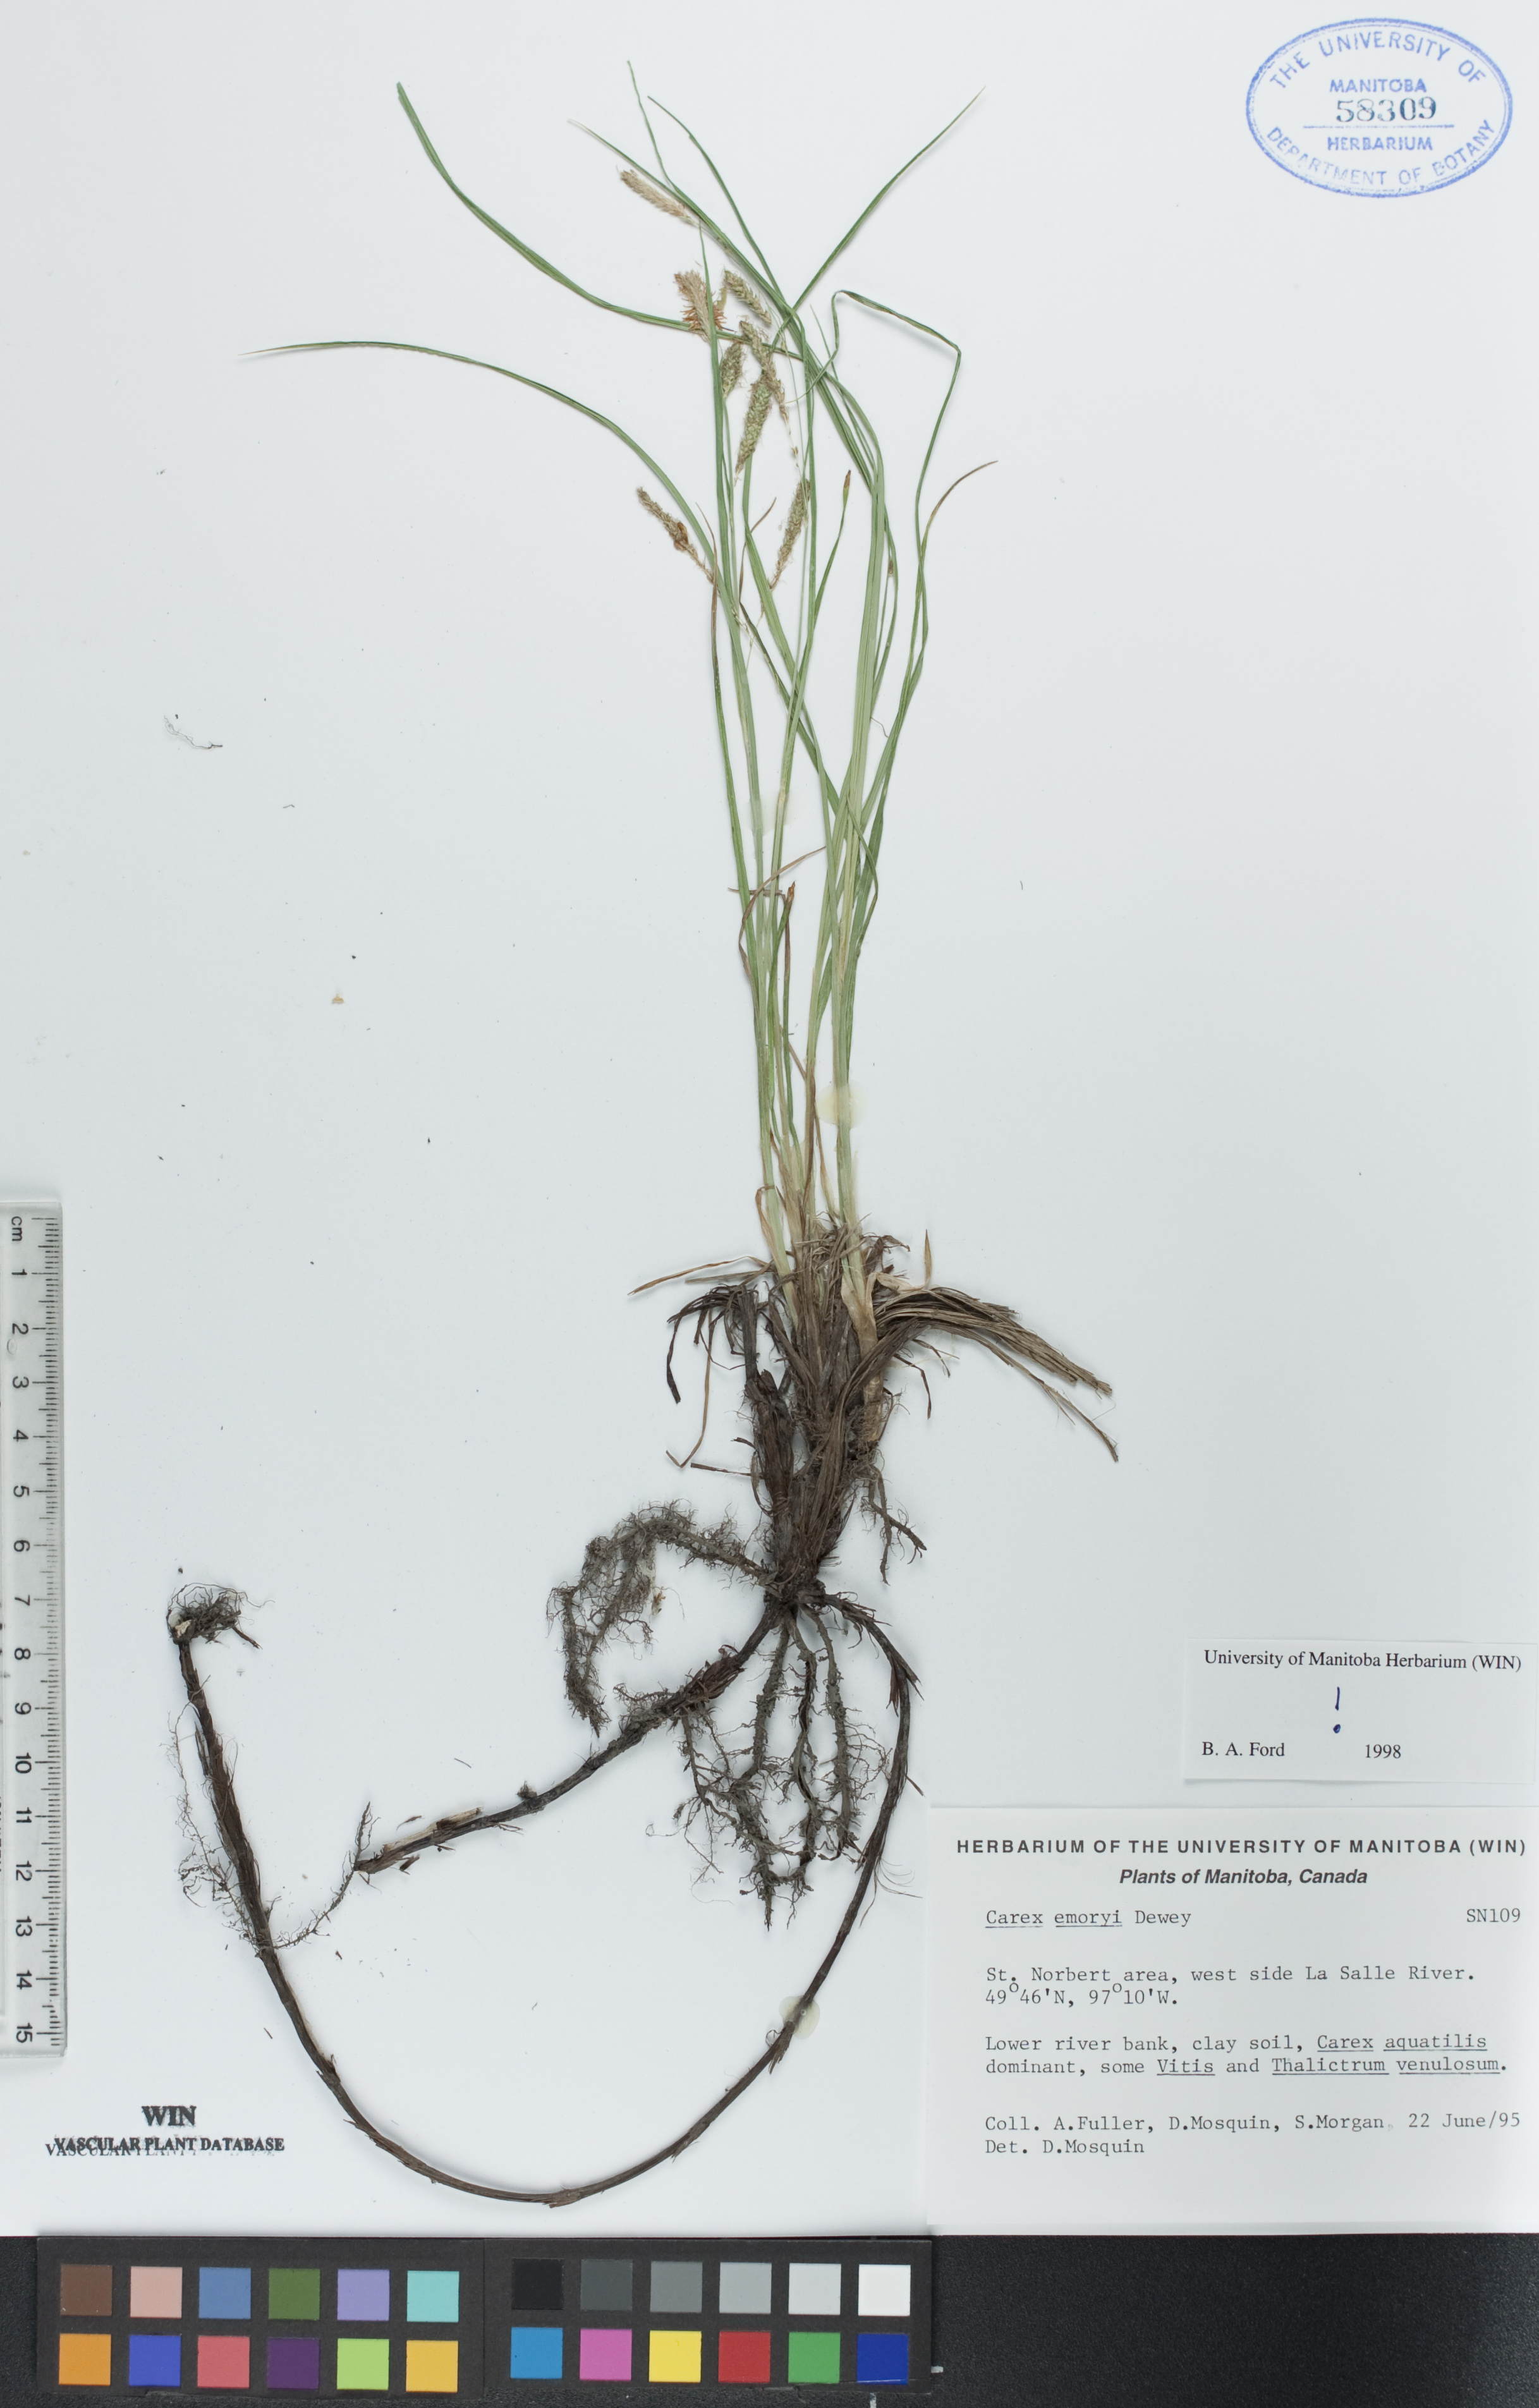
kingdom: Plantae
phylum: Tracheophyta
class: Liliopsida
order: Poales
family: Cyperaceae
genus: Carex
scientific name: Carex emoryi
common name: Emory's sedge
